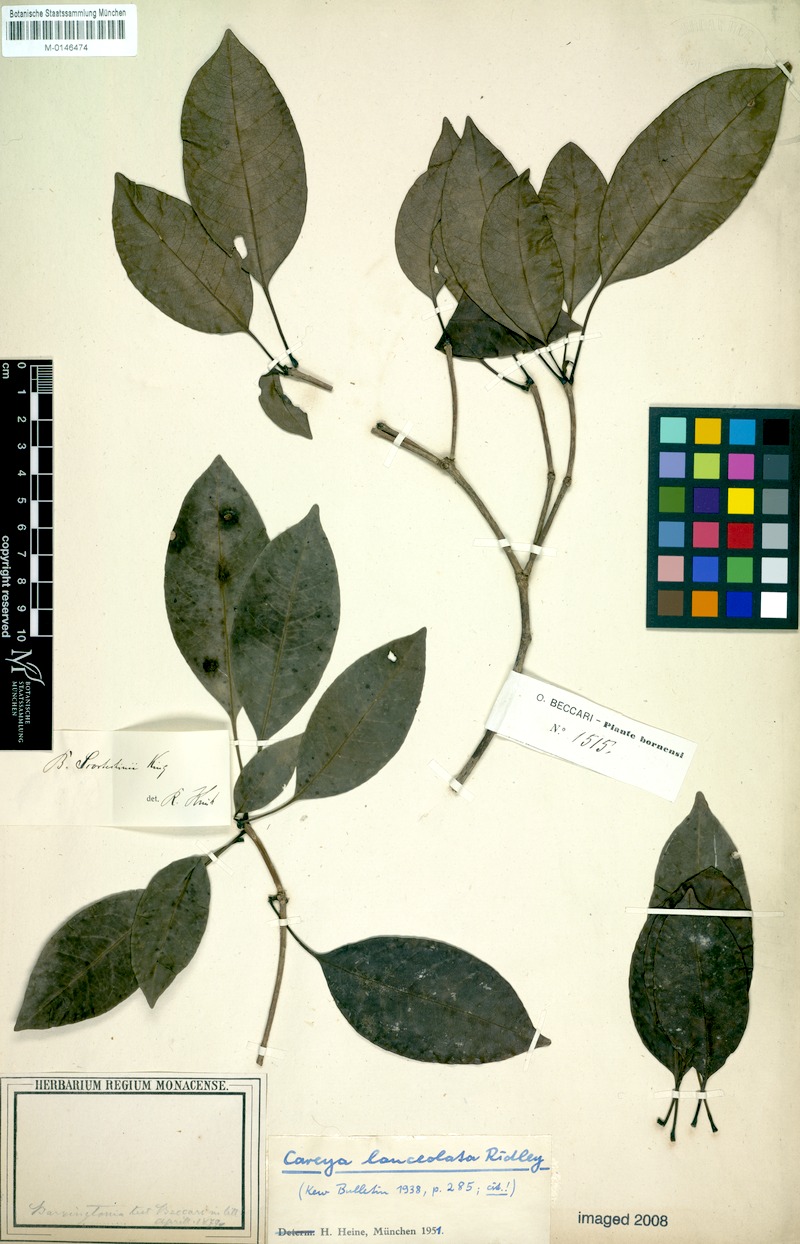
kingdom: Plantae
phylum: Tracheophyta
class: Magnoliopsida
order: Ericales
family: Lecythidaceae
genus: Barringtonia
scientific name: Barringtonia lanceolata
